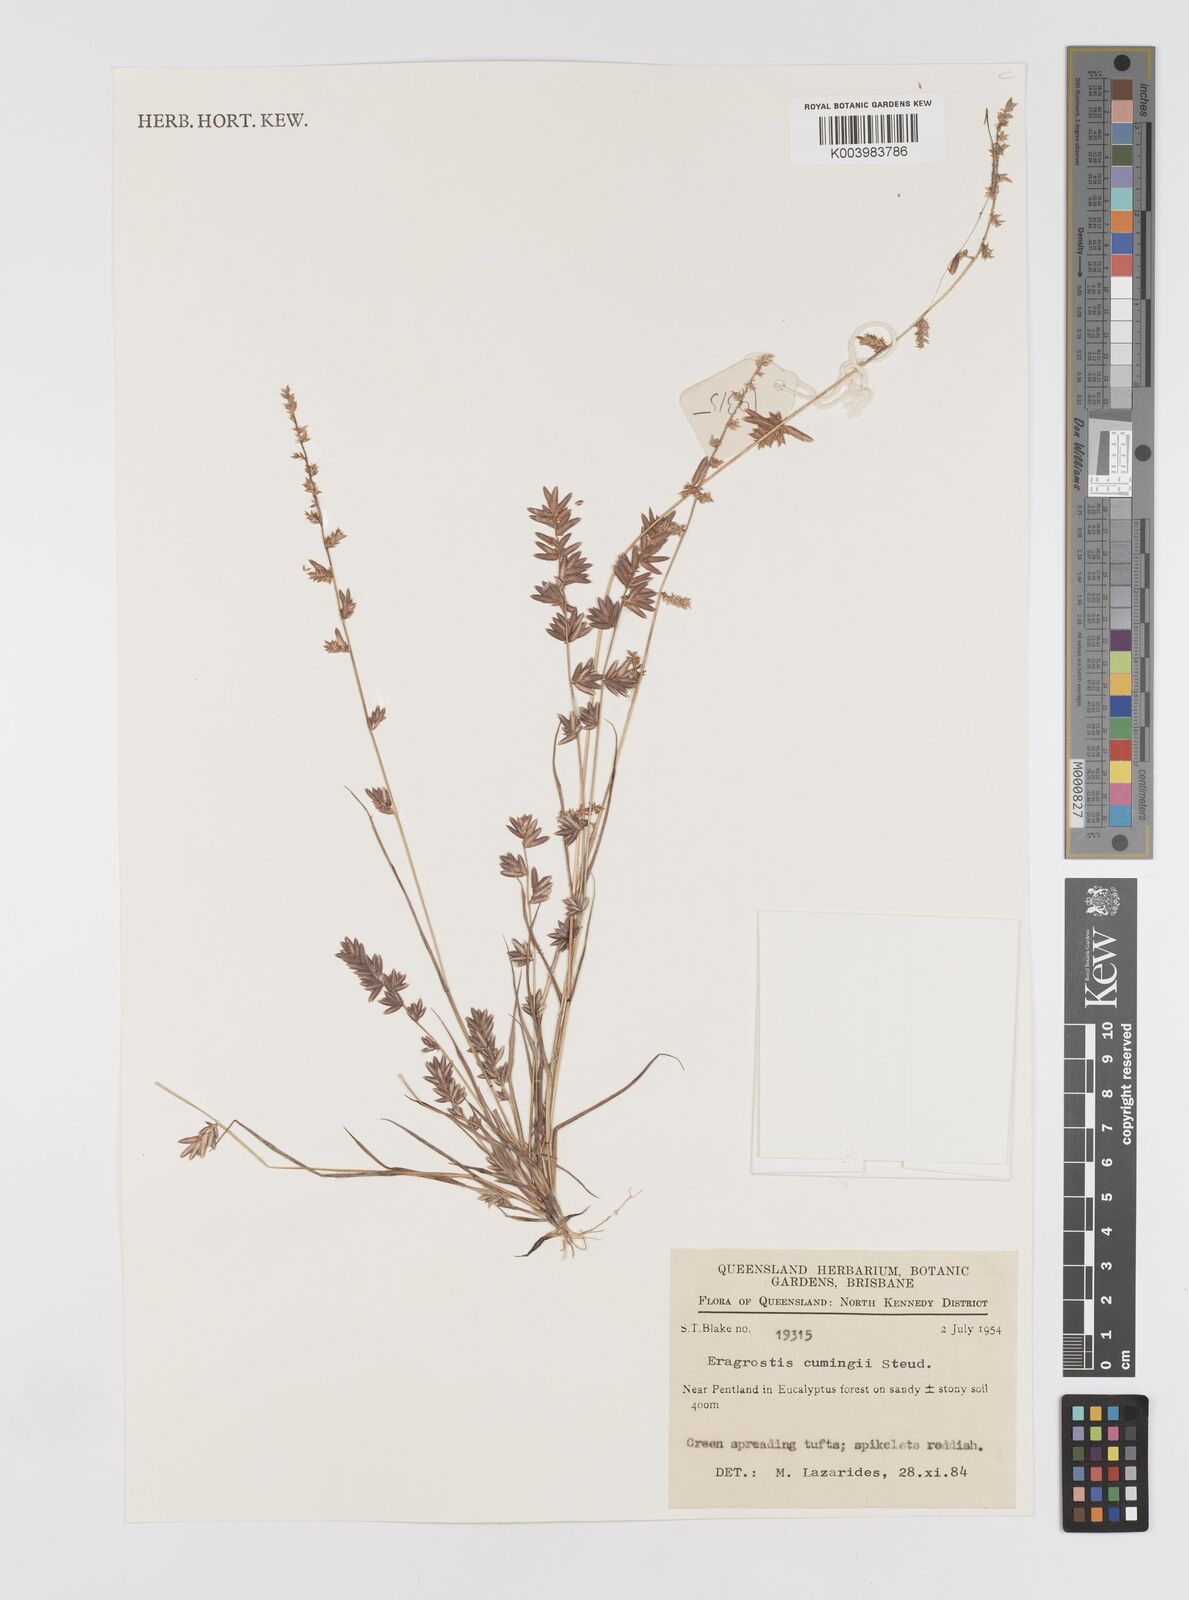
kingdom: Plantae
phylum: Tracheophyta
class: Liliopsida
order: Poales
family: Poaceae
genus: Eragrostis
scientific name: Eragrostis cumingii
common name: Cuming's lovegrass
